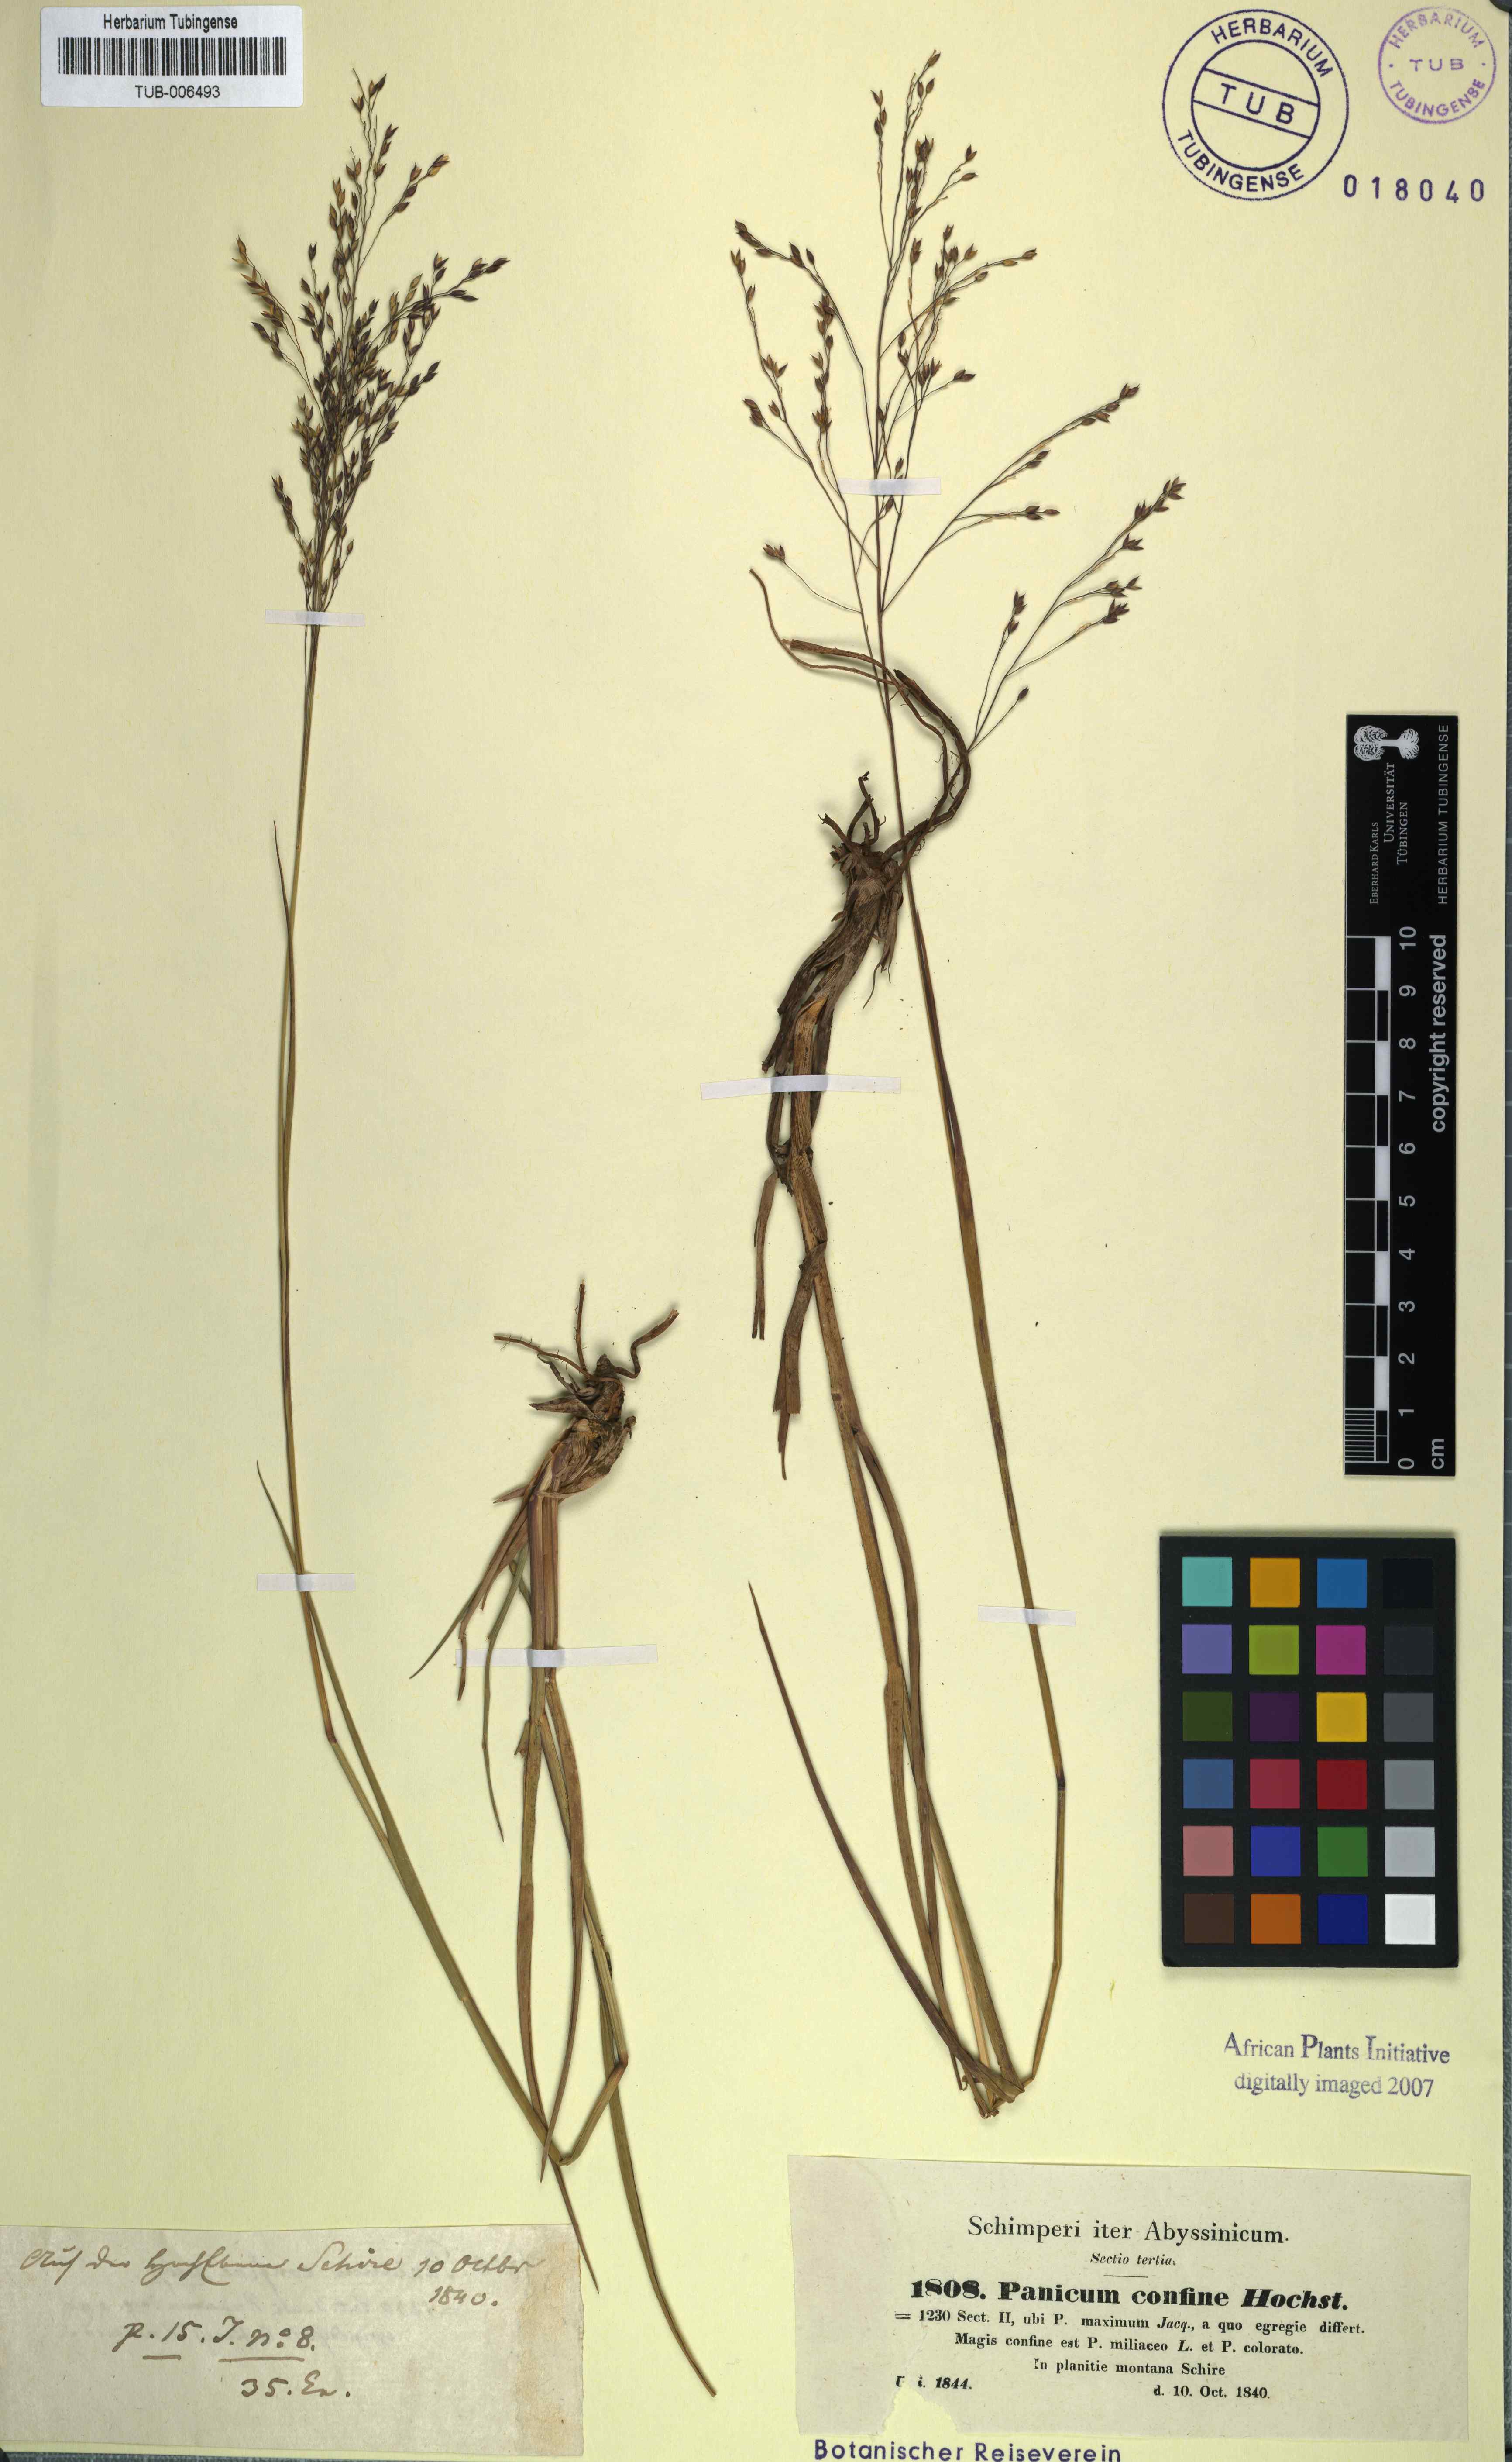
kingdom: Plantae
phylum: Tracheophyta
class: Liliopsida
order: Poales
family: Poaceae
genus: Panicum
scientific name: Panicum curviflorum
